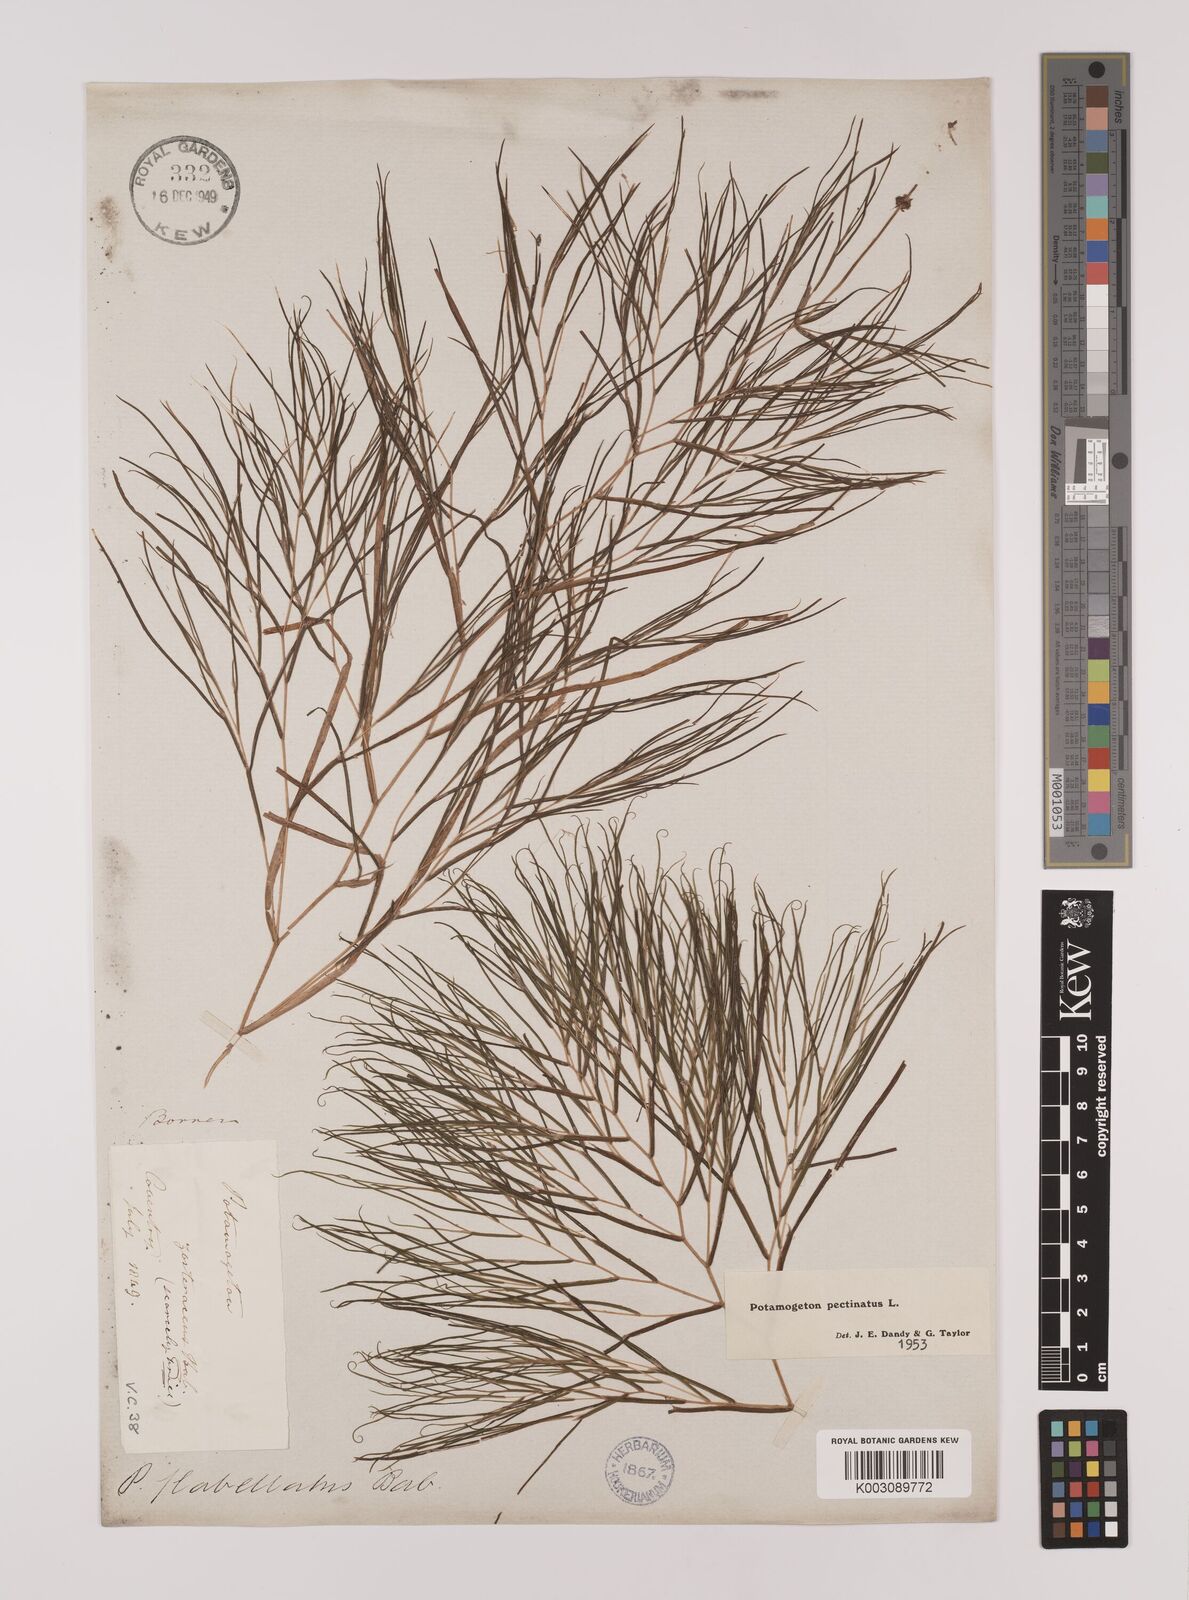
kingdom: Plantae
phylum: Tracheophyta
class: Liliopsida
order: Alismatales
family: Potamogetonaceae
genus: Stuckenia
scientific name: Stuckenia pectinata
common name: Sago pondweed
